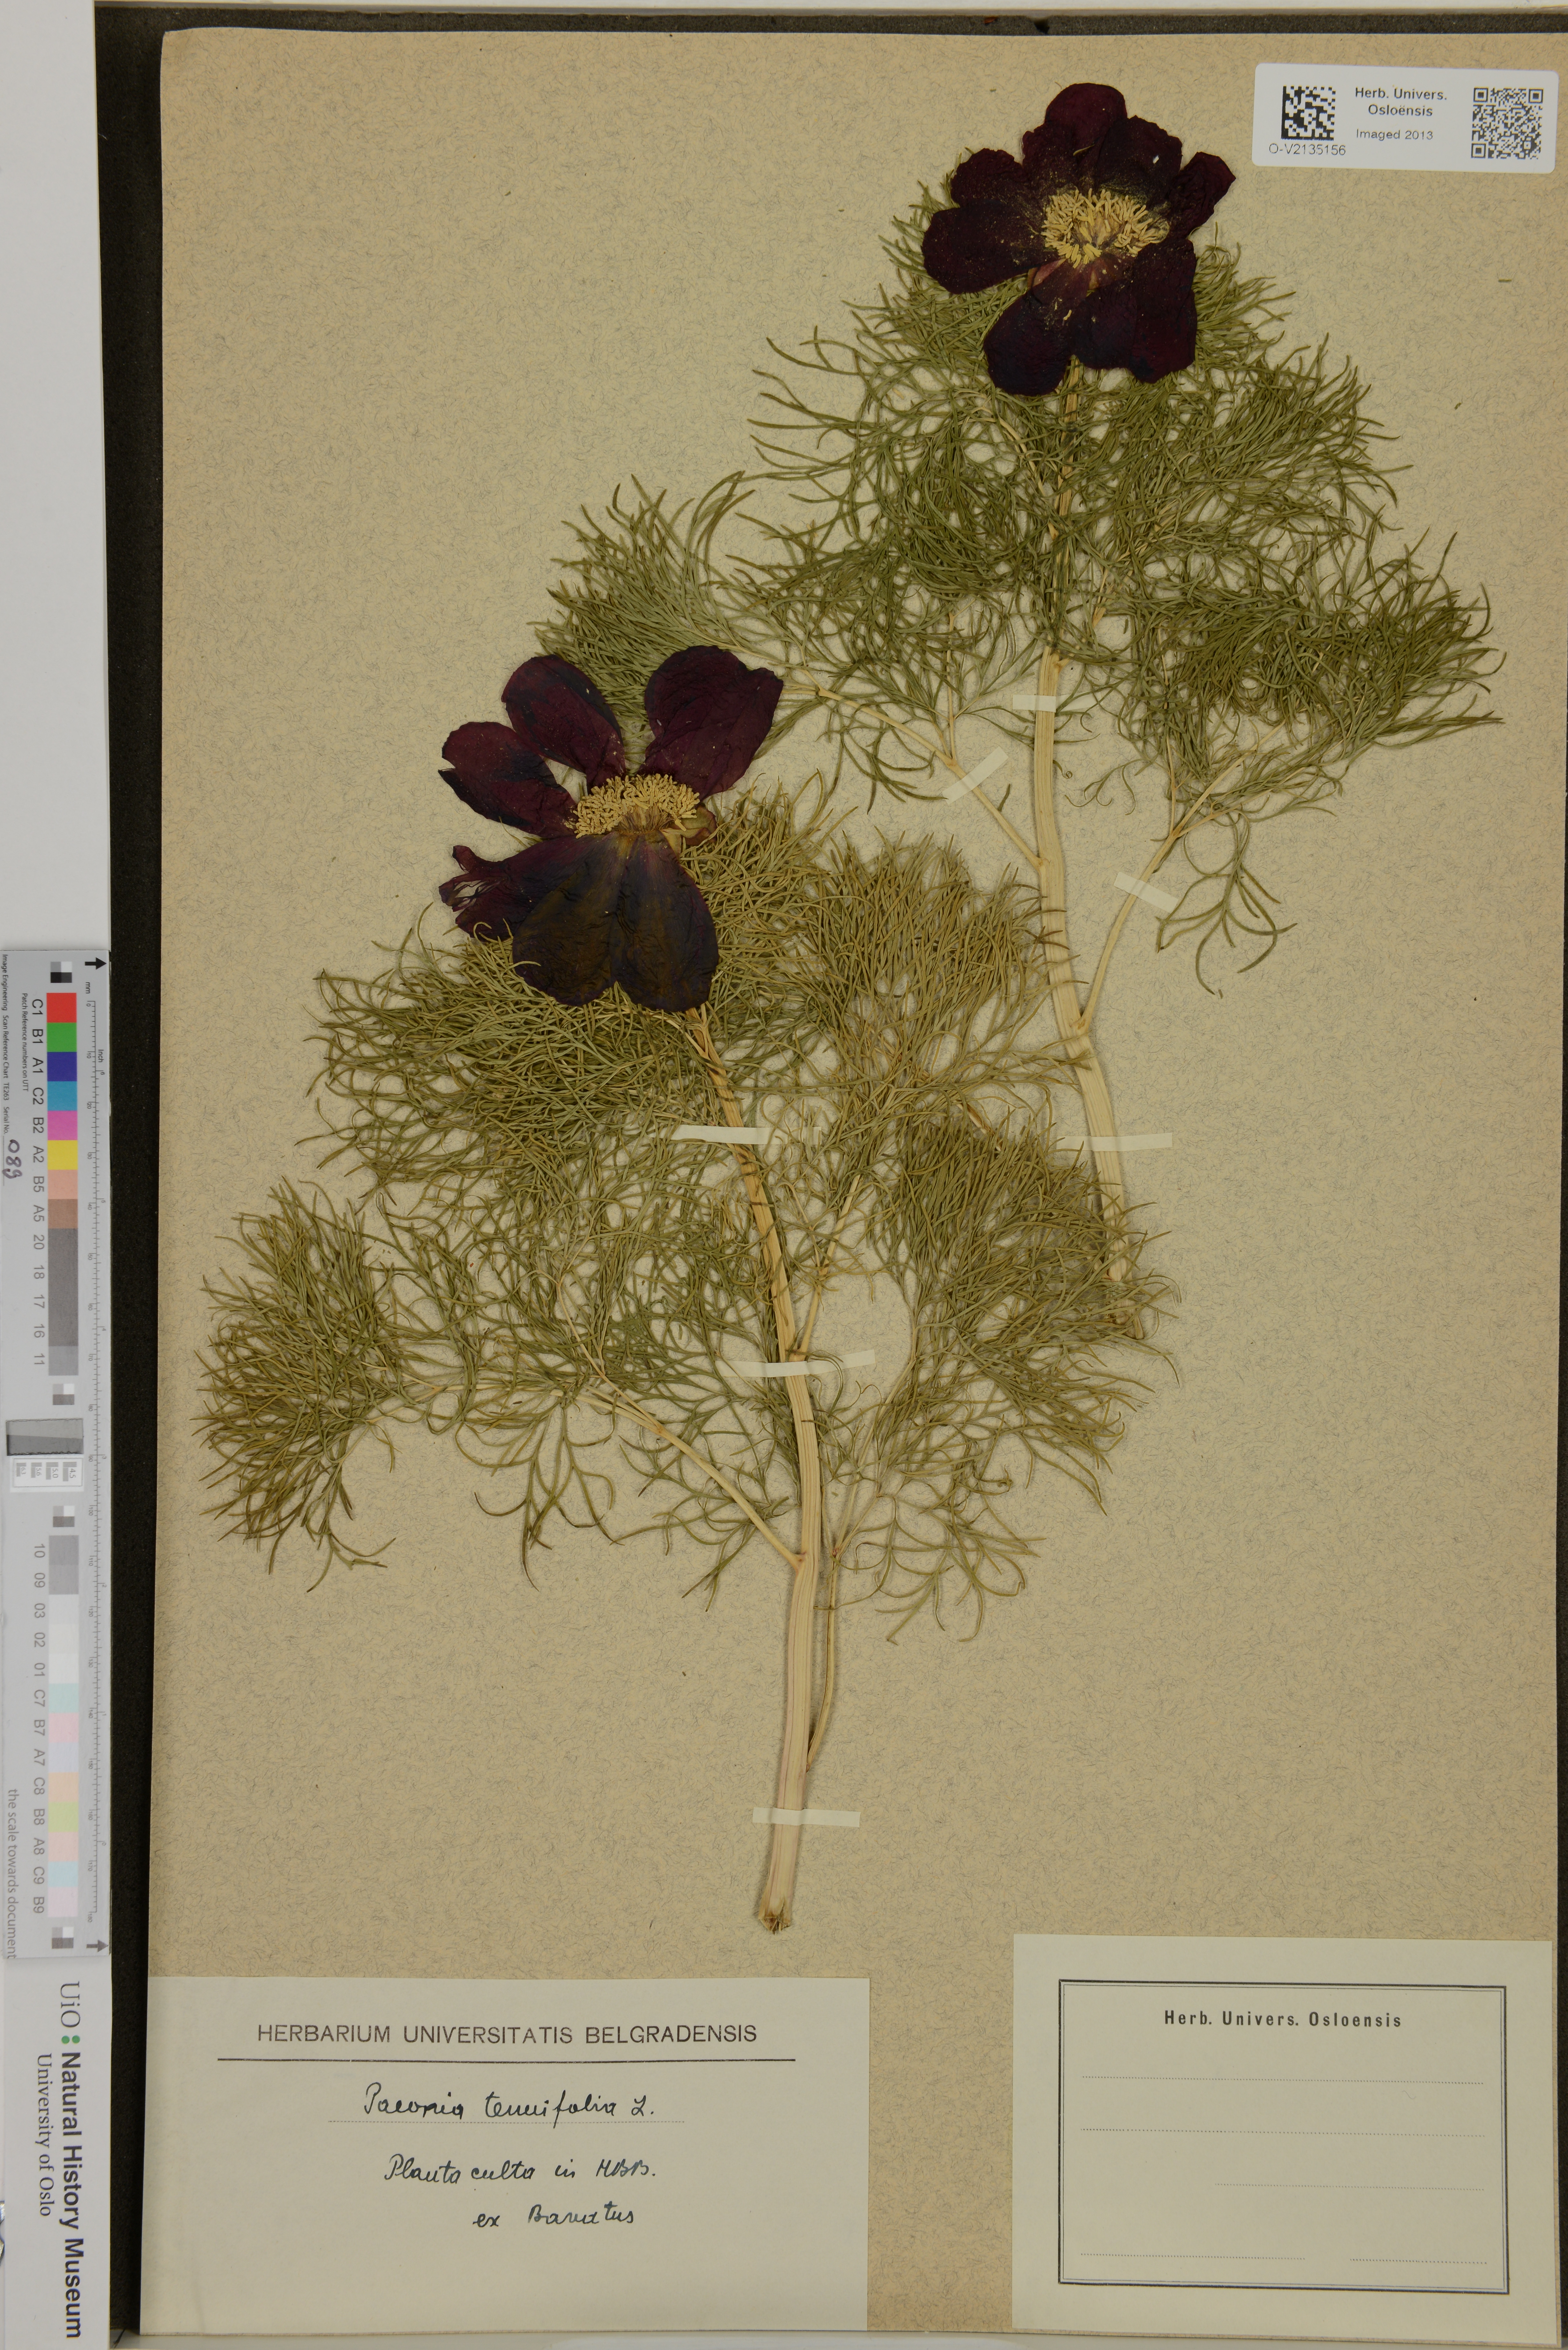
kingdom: Plantae
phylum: Tracheophyta
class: Magnoliopsida
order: Saxifragales
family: Paeoniaceae
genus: Paeonia
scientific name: Paeonia tenuifolia
